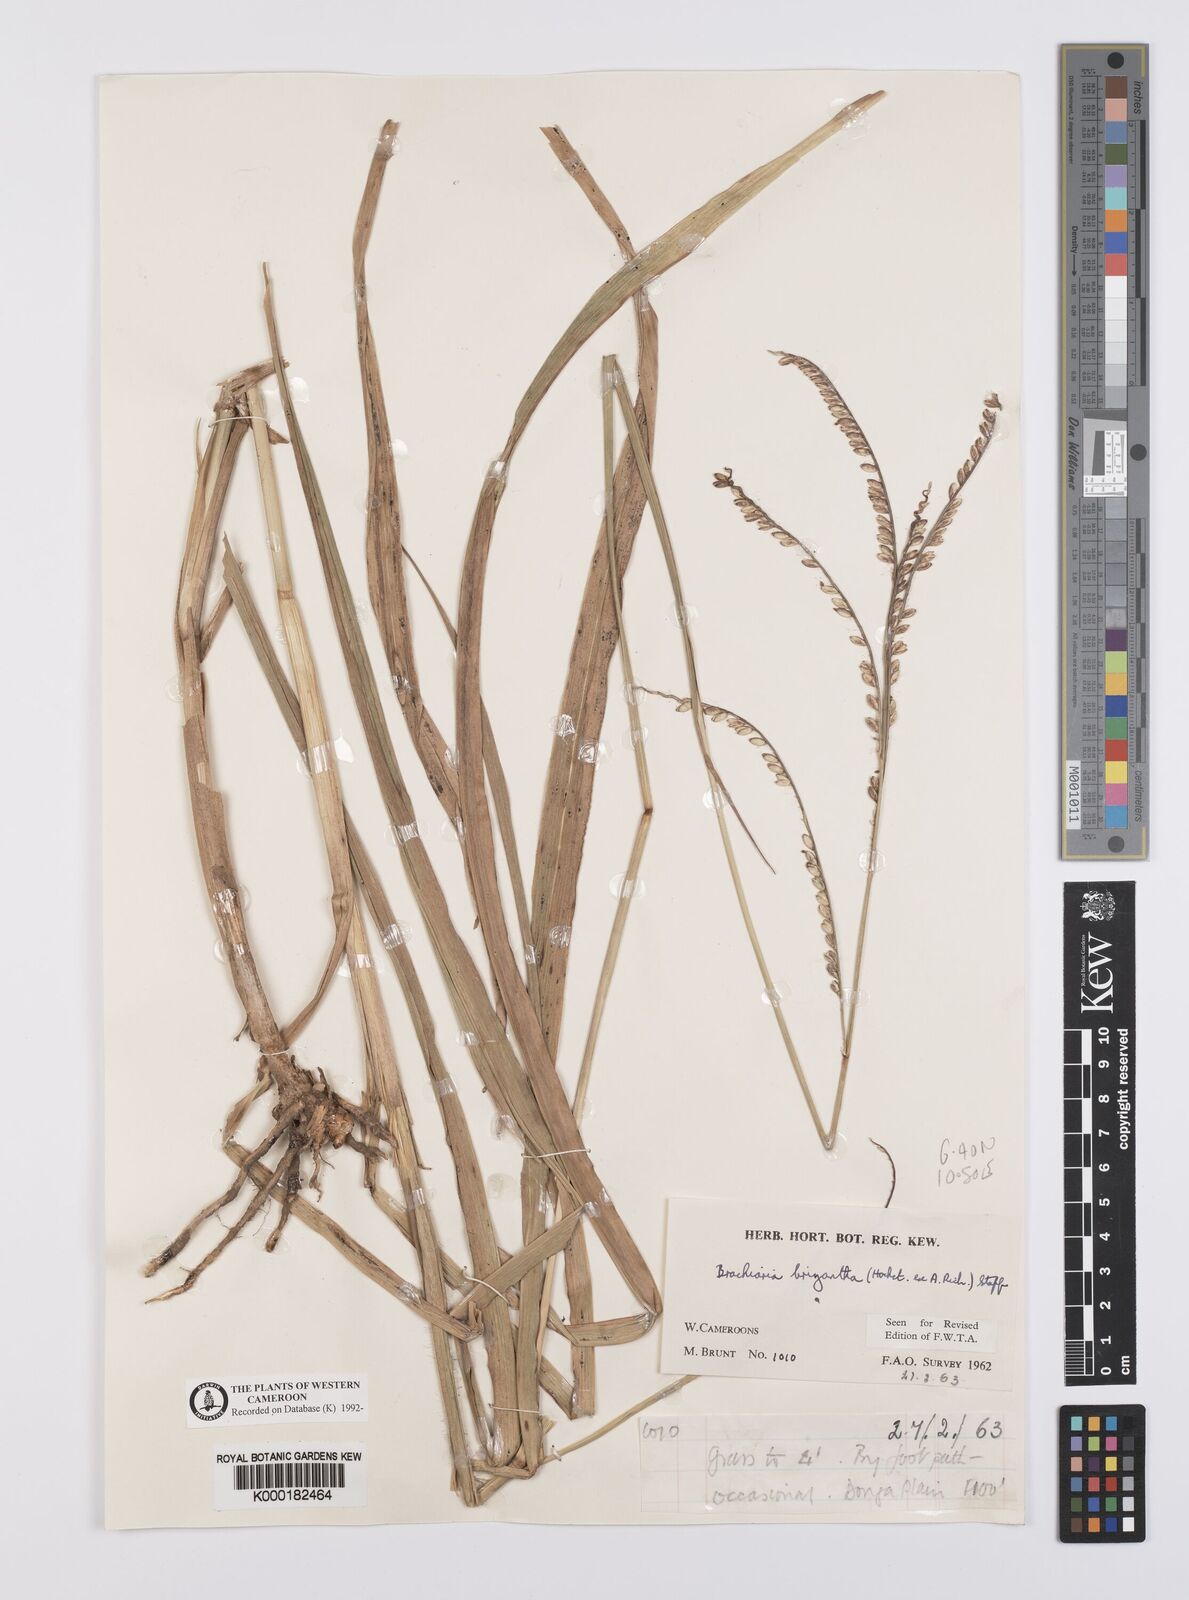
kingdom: Plantae
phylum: Tracheophyta
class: Liliopsida
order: Poales
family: Poaceae
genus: Urochloa
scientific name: Urochloa brizantha
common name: Palisade signalgrass
